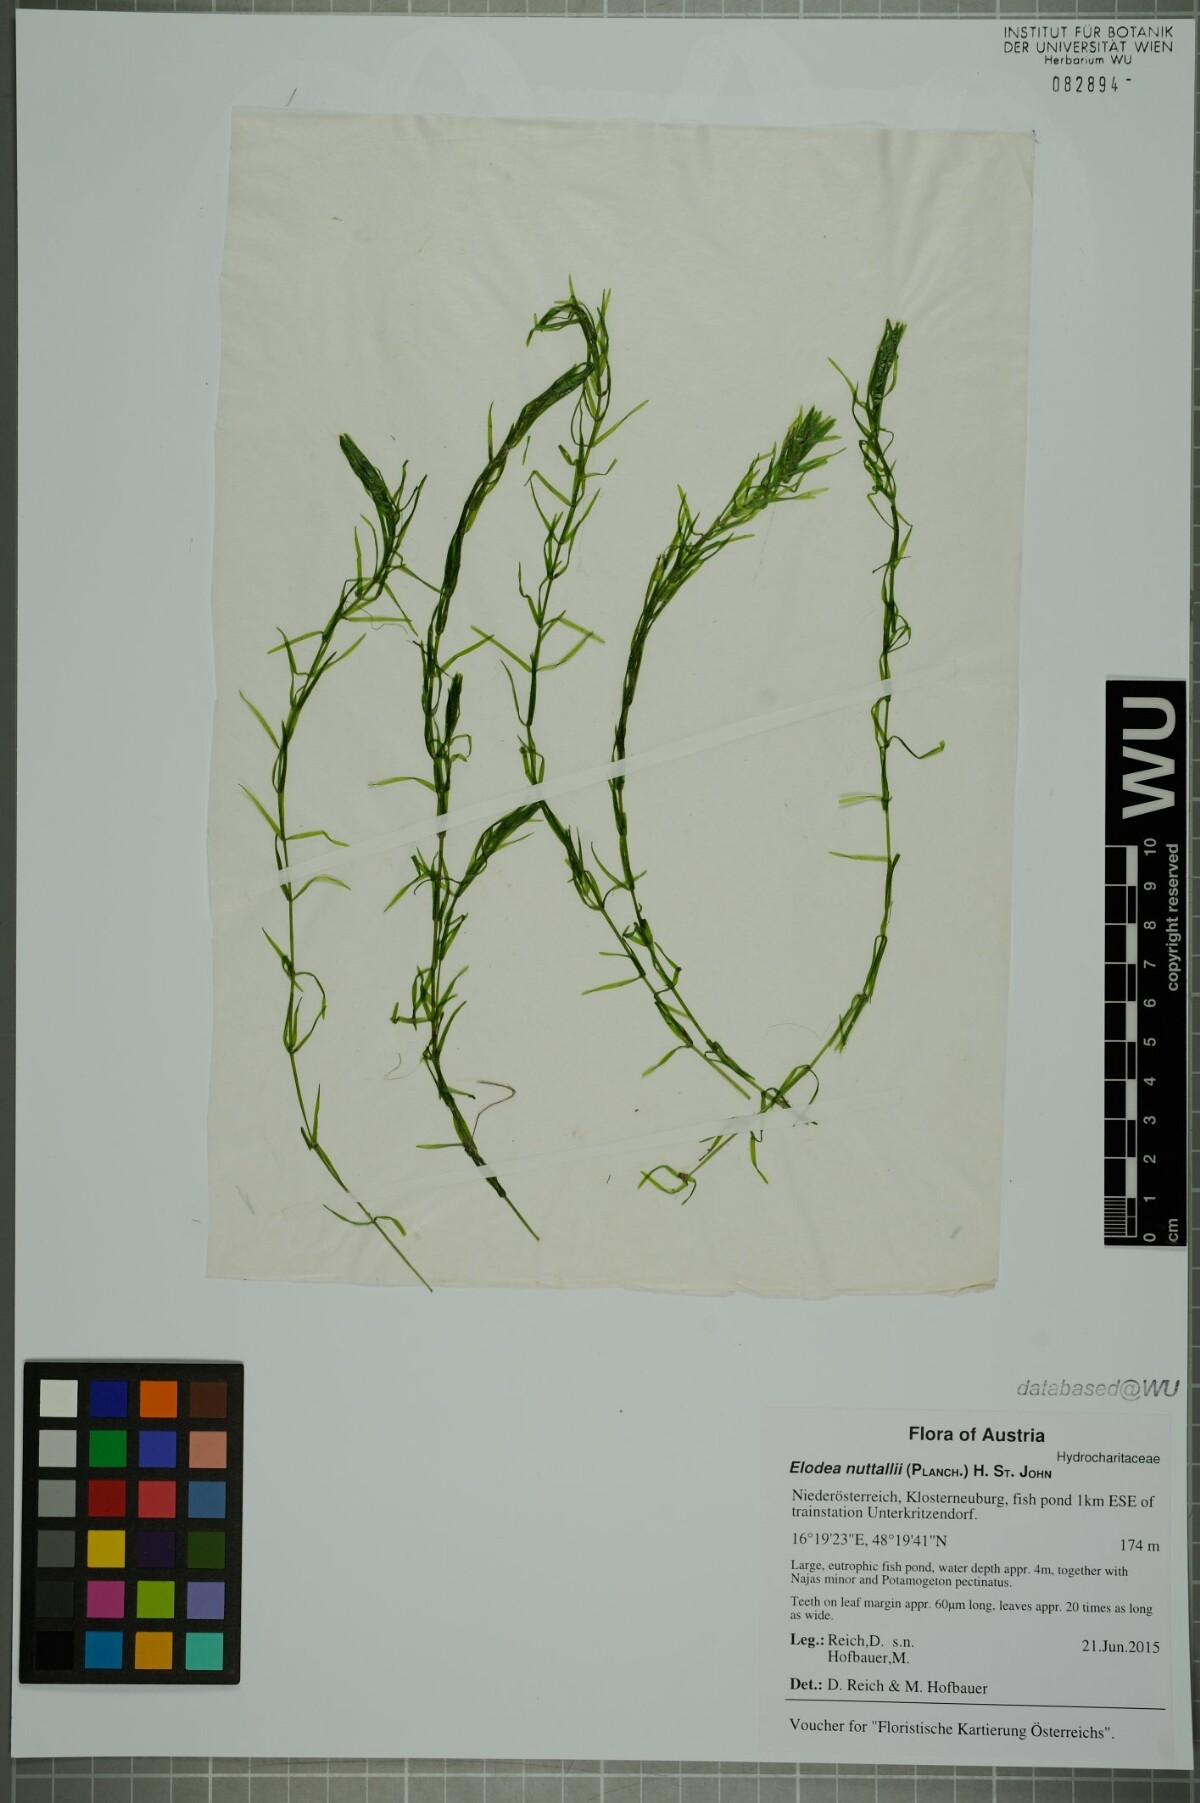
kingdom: Plantae
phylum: Tracheophyta
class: Liliopsida
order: Alismatales
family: Hydrocharitaceae
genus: Elodea
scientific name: Elodea nuttallii
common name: Nuttall's waterweed
